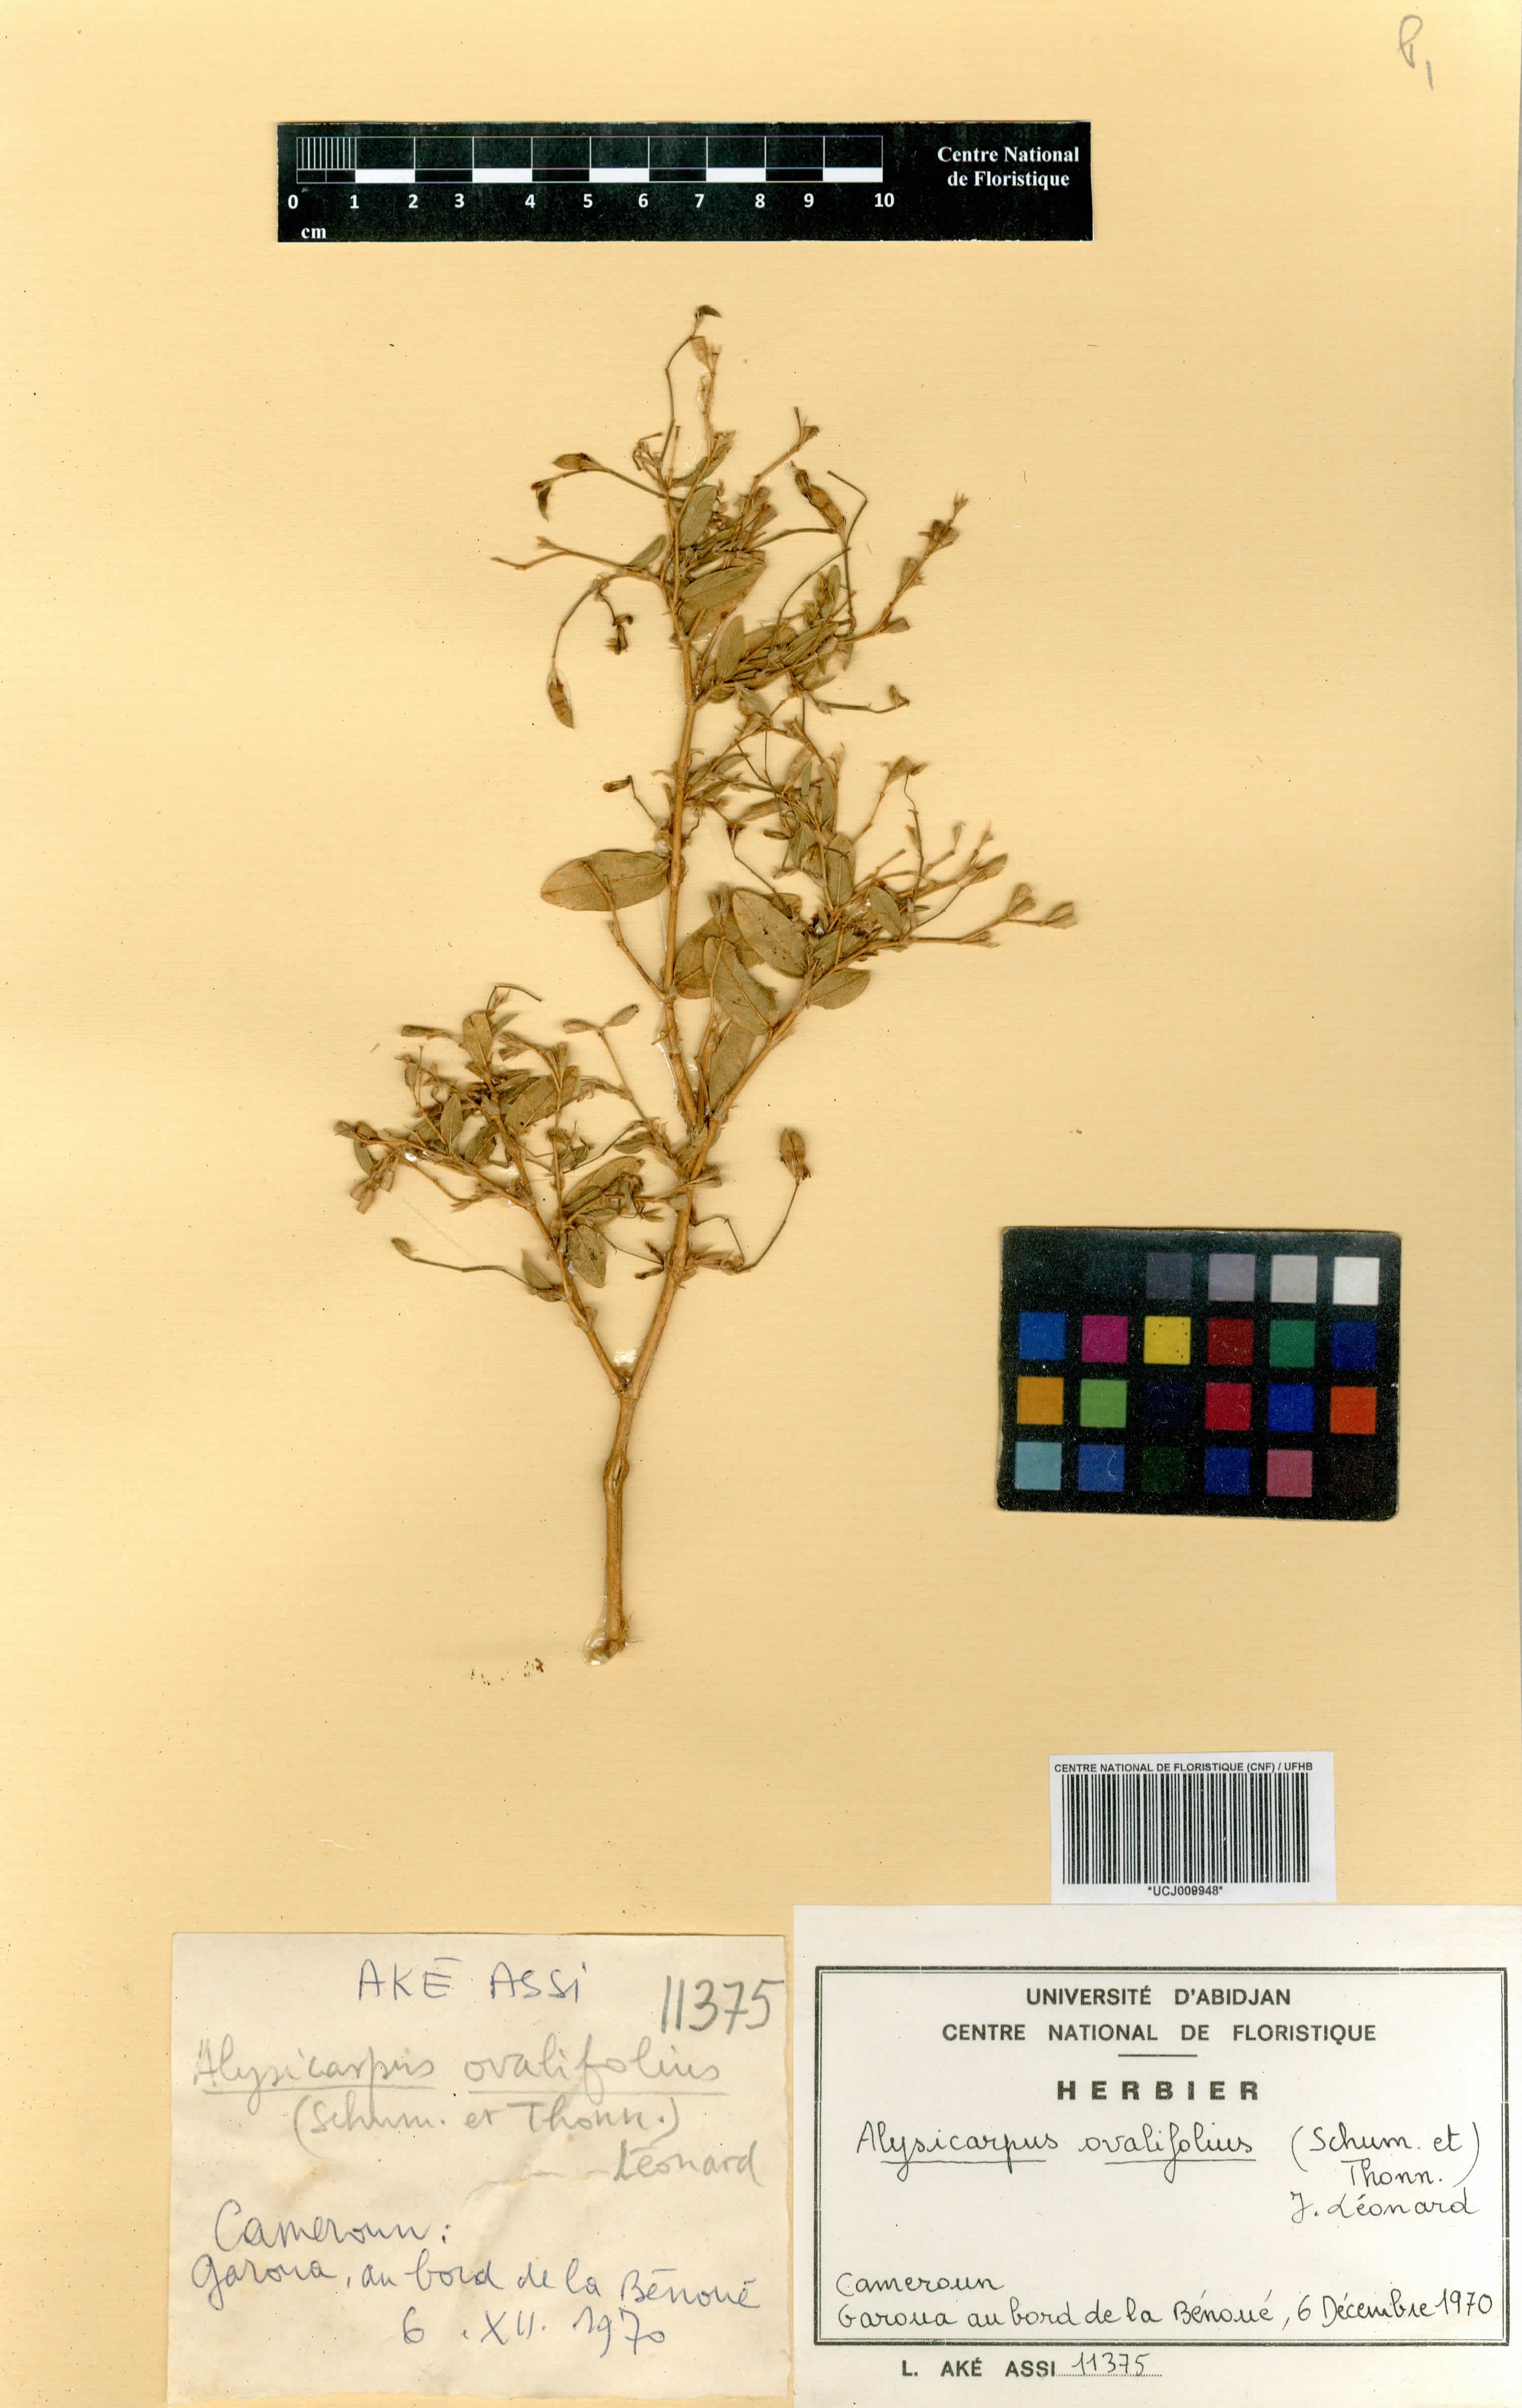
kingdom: Plantae
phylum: Tracheophyta
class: Magnoliopsida
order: Fabales
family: Fabaceae
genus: Alysicarpus
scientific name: Alysicarpus ovalifolius
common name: Alyce clover
